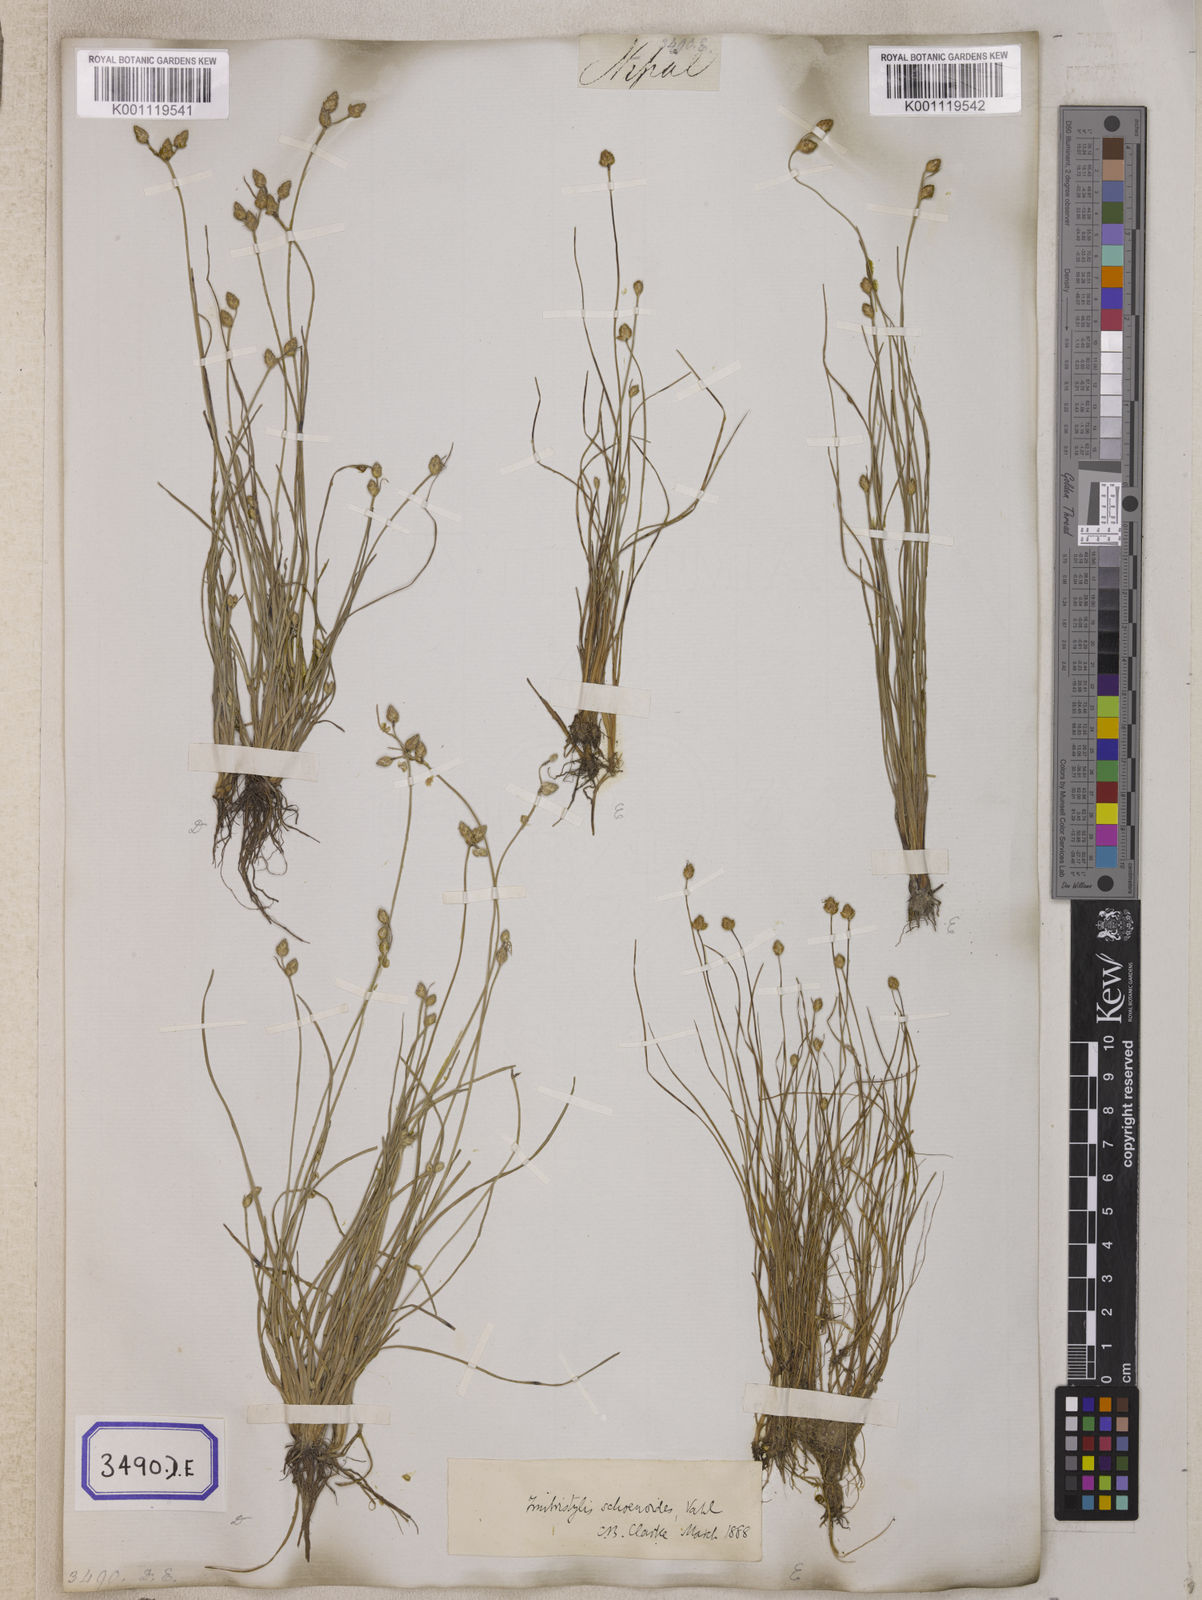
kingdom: Plantae
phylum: Tracheophyta
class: Liliopsida
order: Poales
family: Cyperaceae
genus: Isolepis
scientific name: Isolepis
